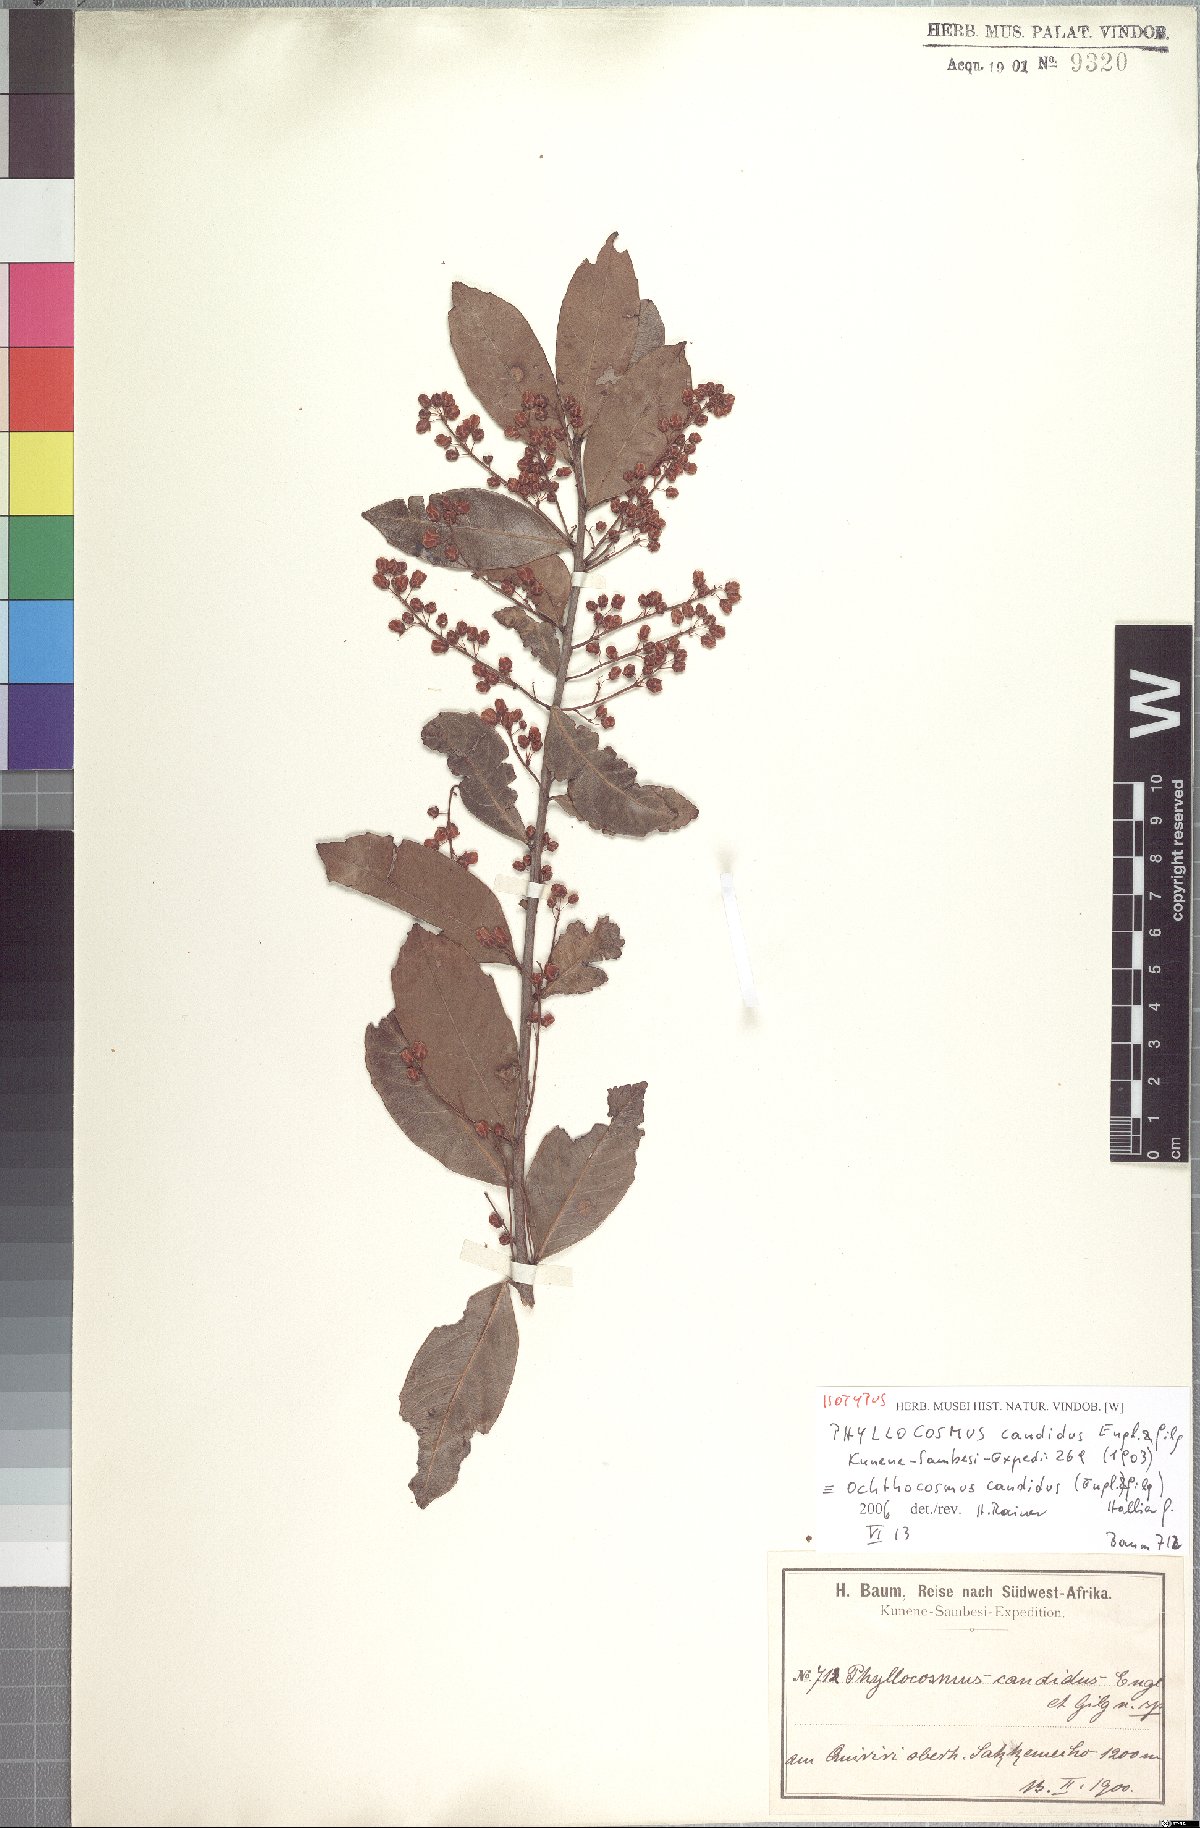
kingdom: Plantae
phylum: Tracheophyta
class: Magnoliopsida
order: Malpighiales
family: Ixonanthaceae
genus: Phyllocosmus
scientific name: Phyllocosmus lemaireanus
